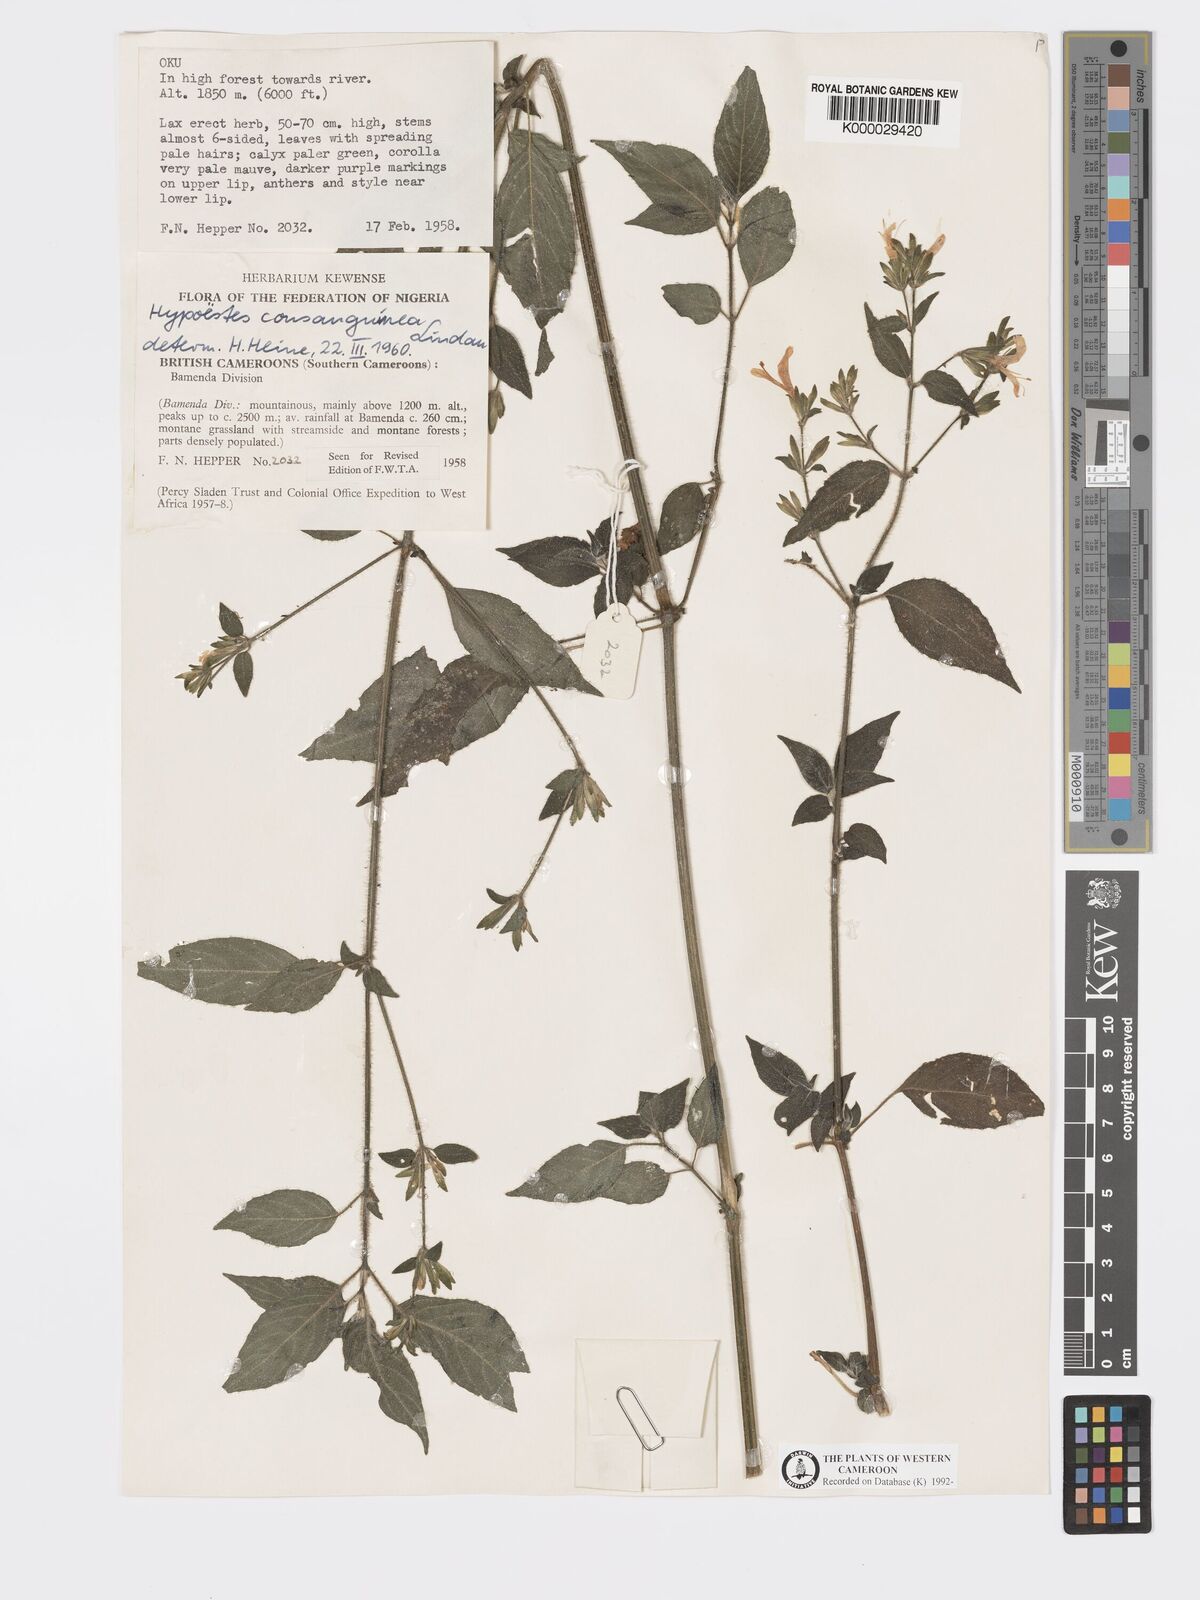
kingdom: Plantae
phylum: Tracheophyta
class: Magnoliopsida
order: Lamiales
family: Acanthaceae
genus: Hypoestes
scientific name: Hypoestes rosea
